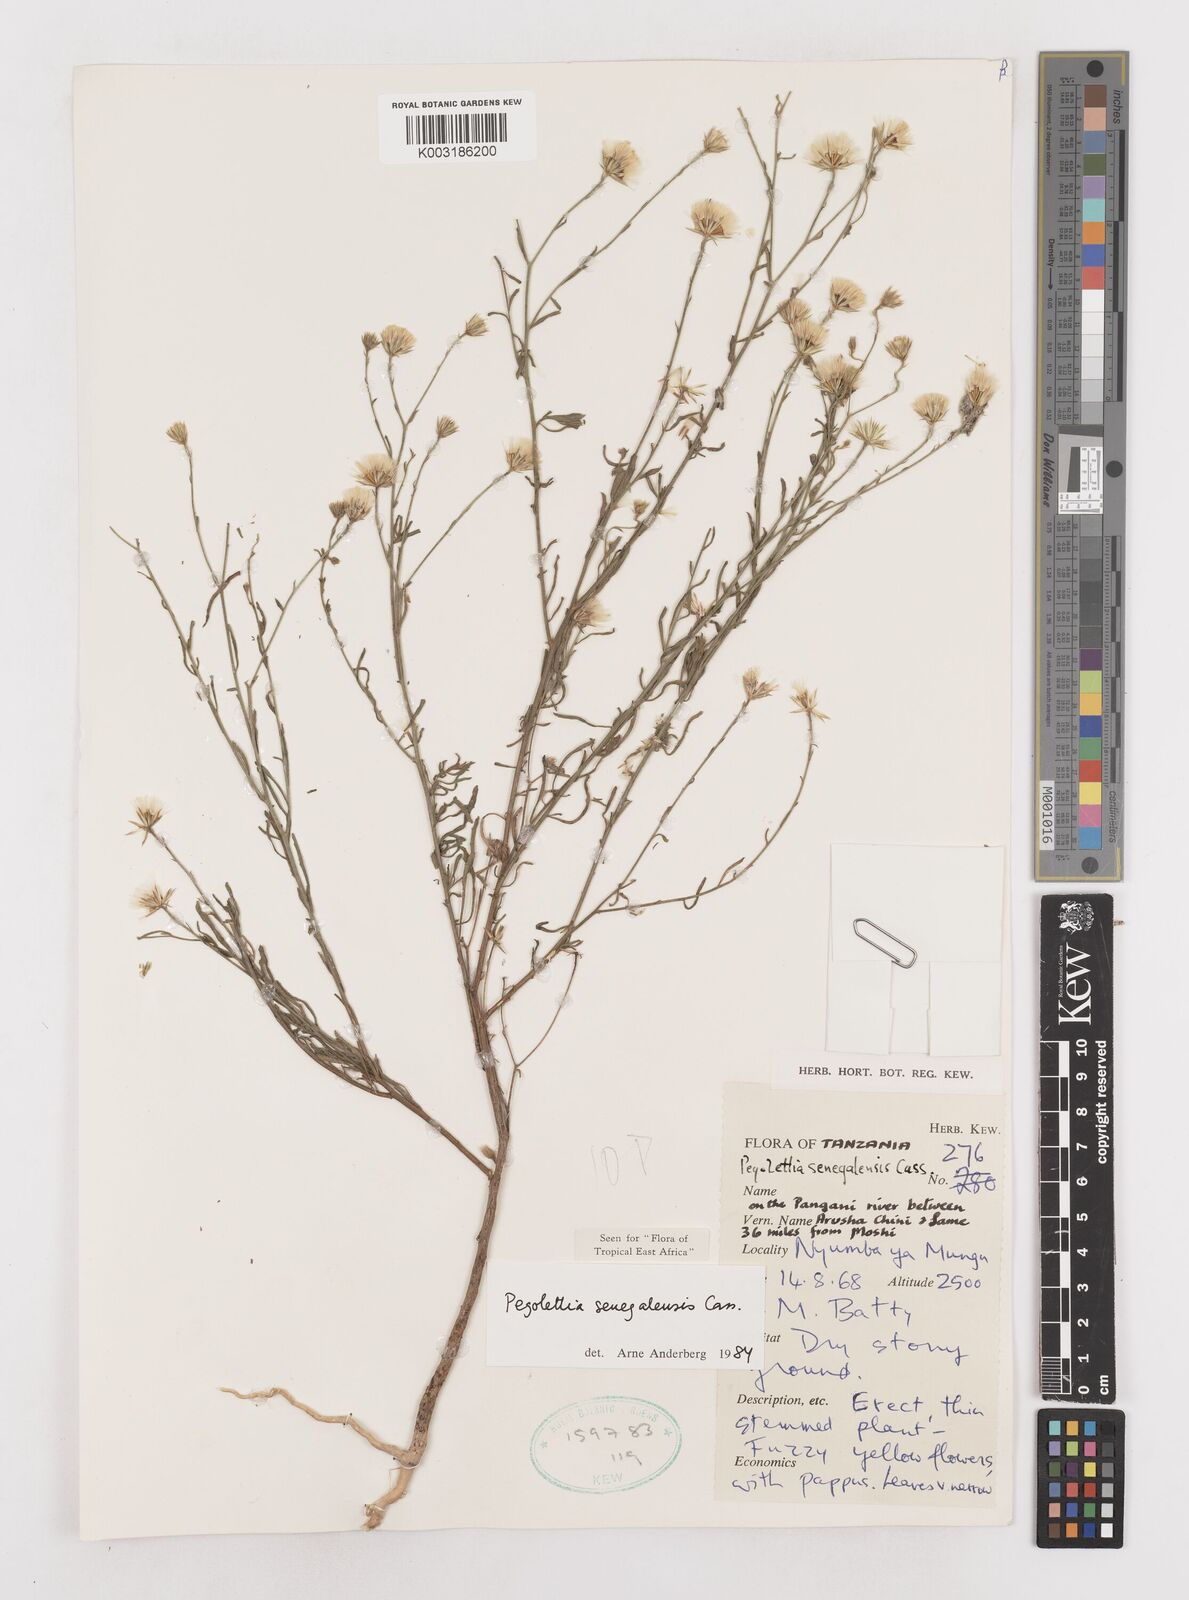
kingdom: Plantae
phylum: Tracheophyta
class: Magnoliopsida
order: Asterales
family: Asteraceae
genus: Pegolettia
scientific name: Pegolettia senegalensis
